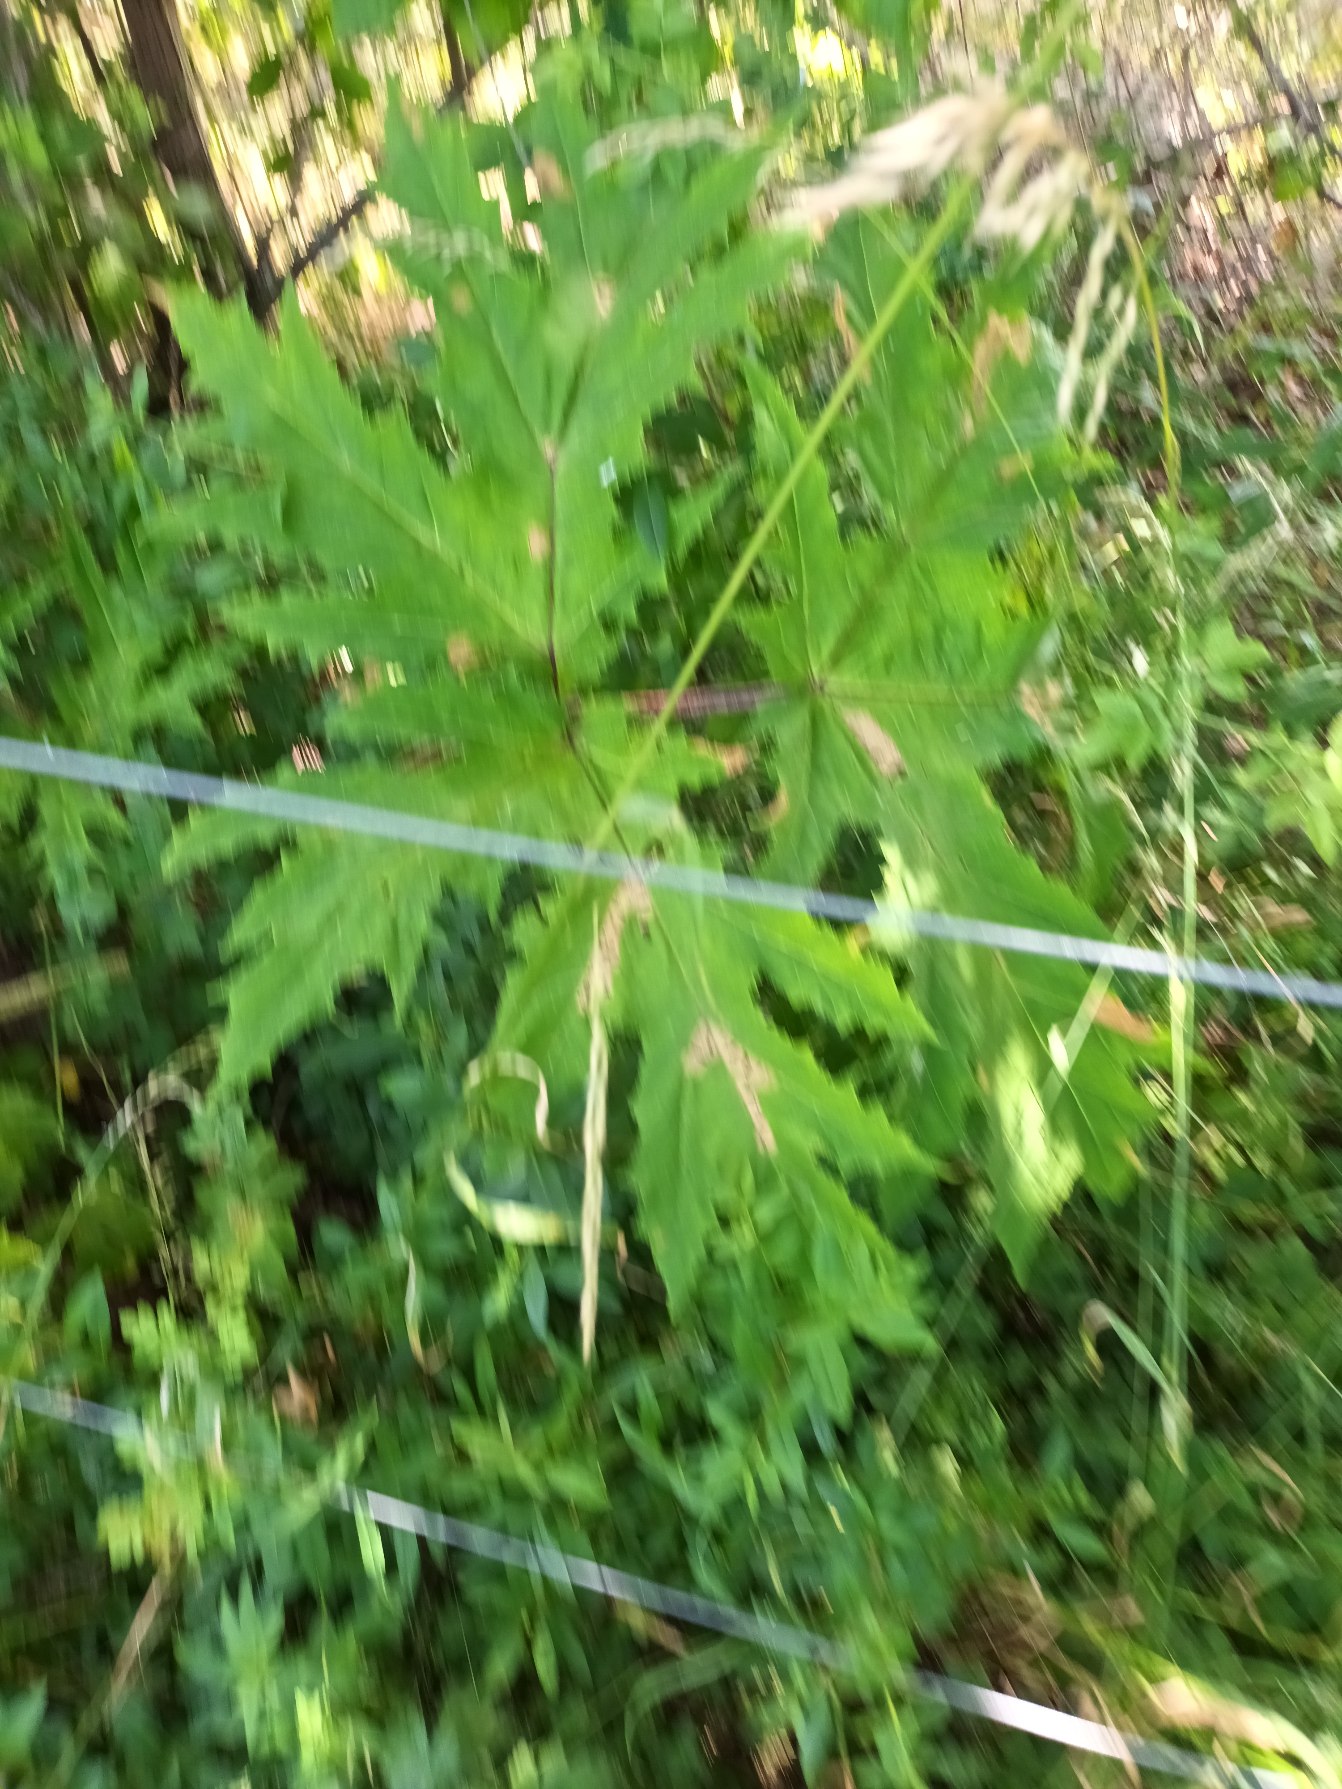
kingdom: Plantae
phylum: Tracheophyta
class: Magnoliopsida
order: Apiales
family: Apiaceae
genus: Heracleum
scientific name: Heracleum mantegazzianum
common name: Kæmpe-bjørneklo
